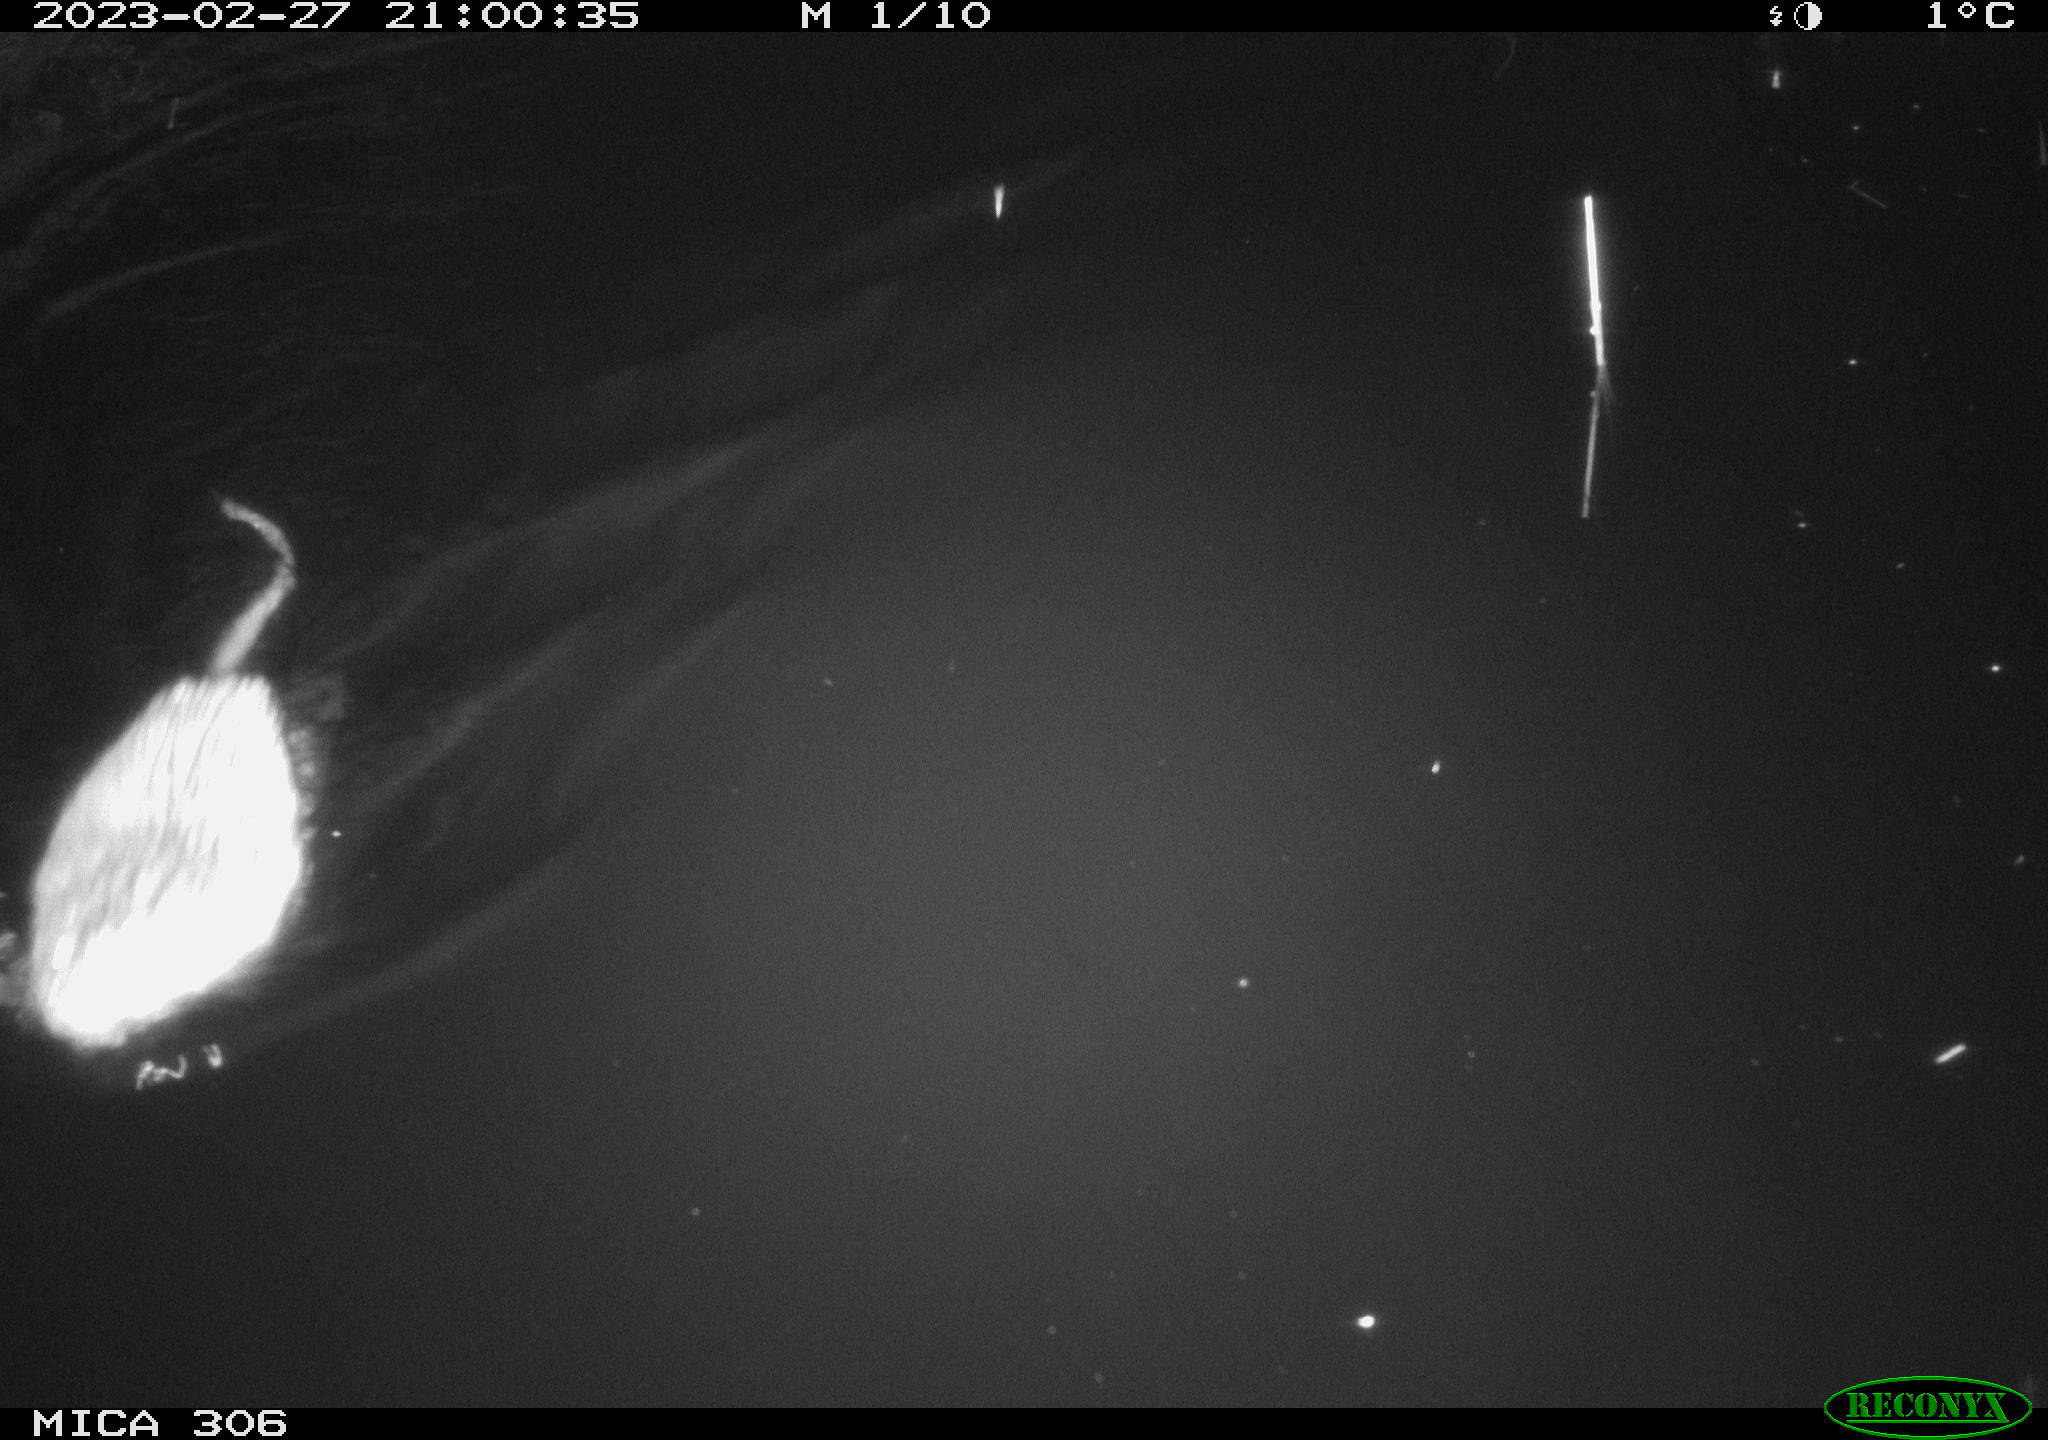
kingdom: Animalia
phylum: Chordata
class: Mammalia
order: Rodentia
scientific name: Rodentia
